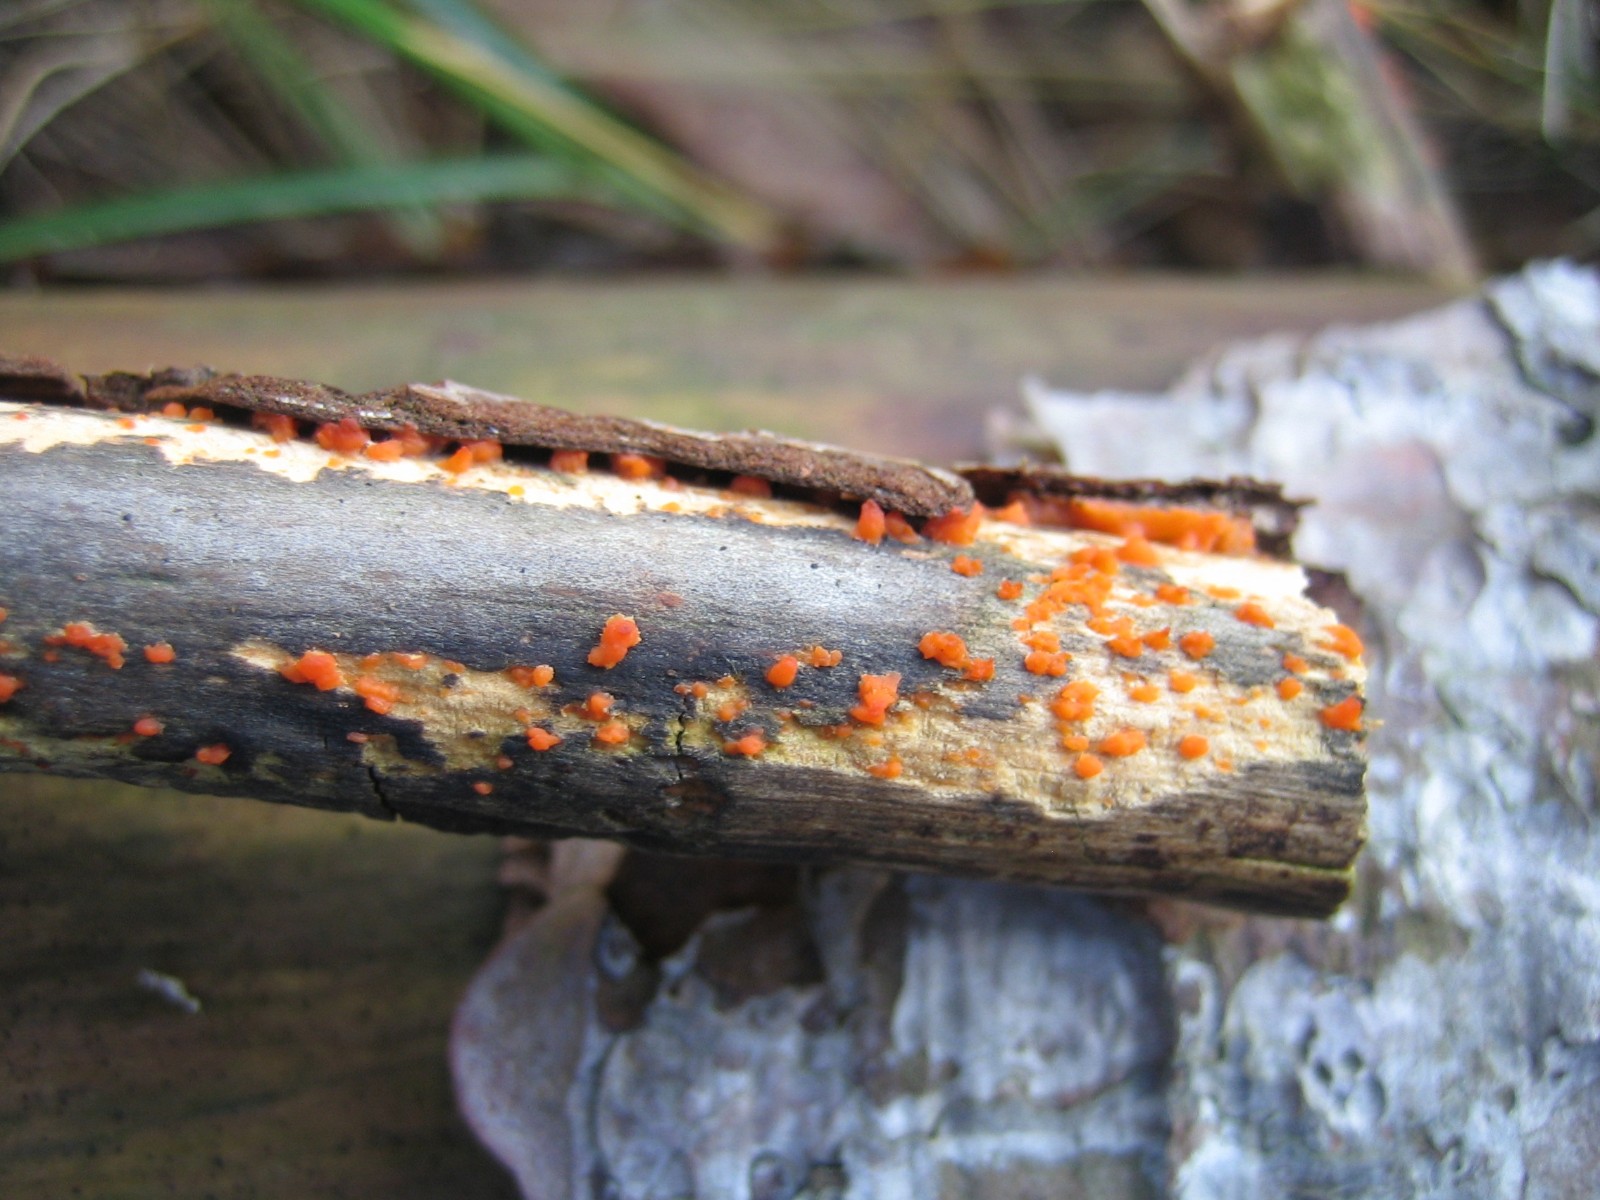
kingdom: Fungi
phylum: Basidiomycota
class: Dacrymycetes
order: Dacrymycetales
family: Dacrymycetaceae
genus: Dacrymyces
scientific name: Dacrymyces stillatus
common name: almindelig tåresvamp
